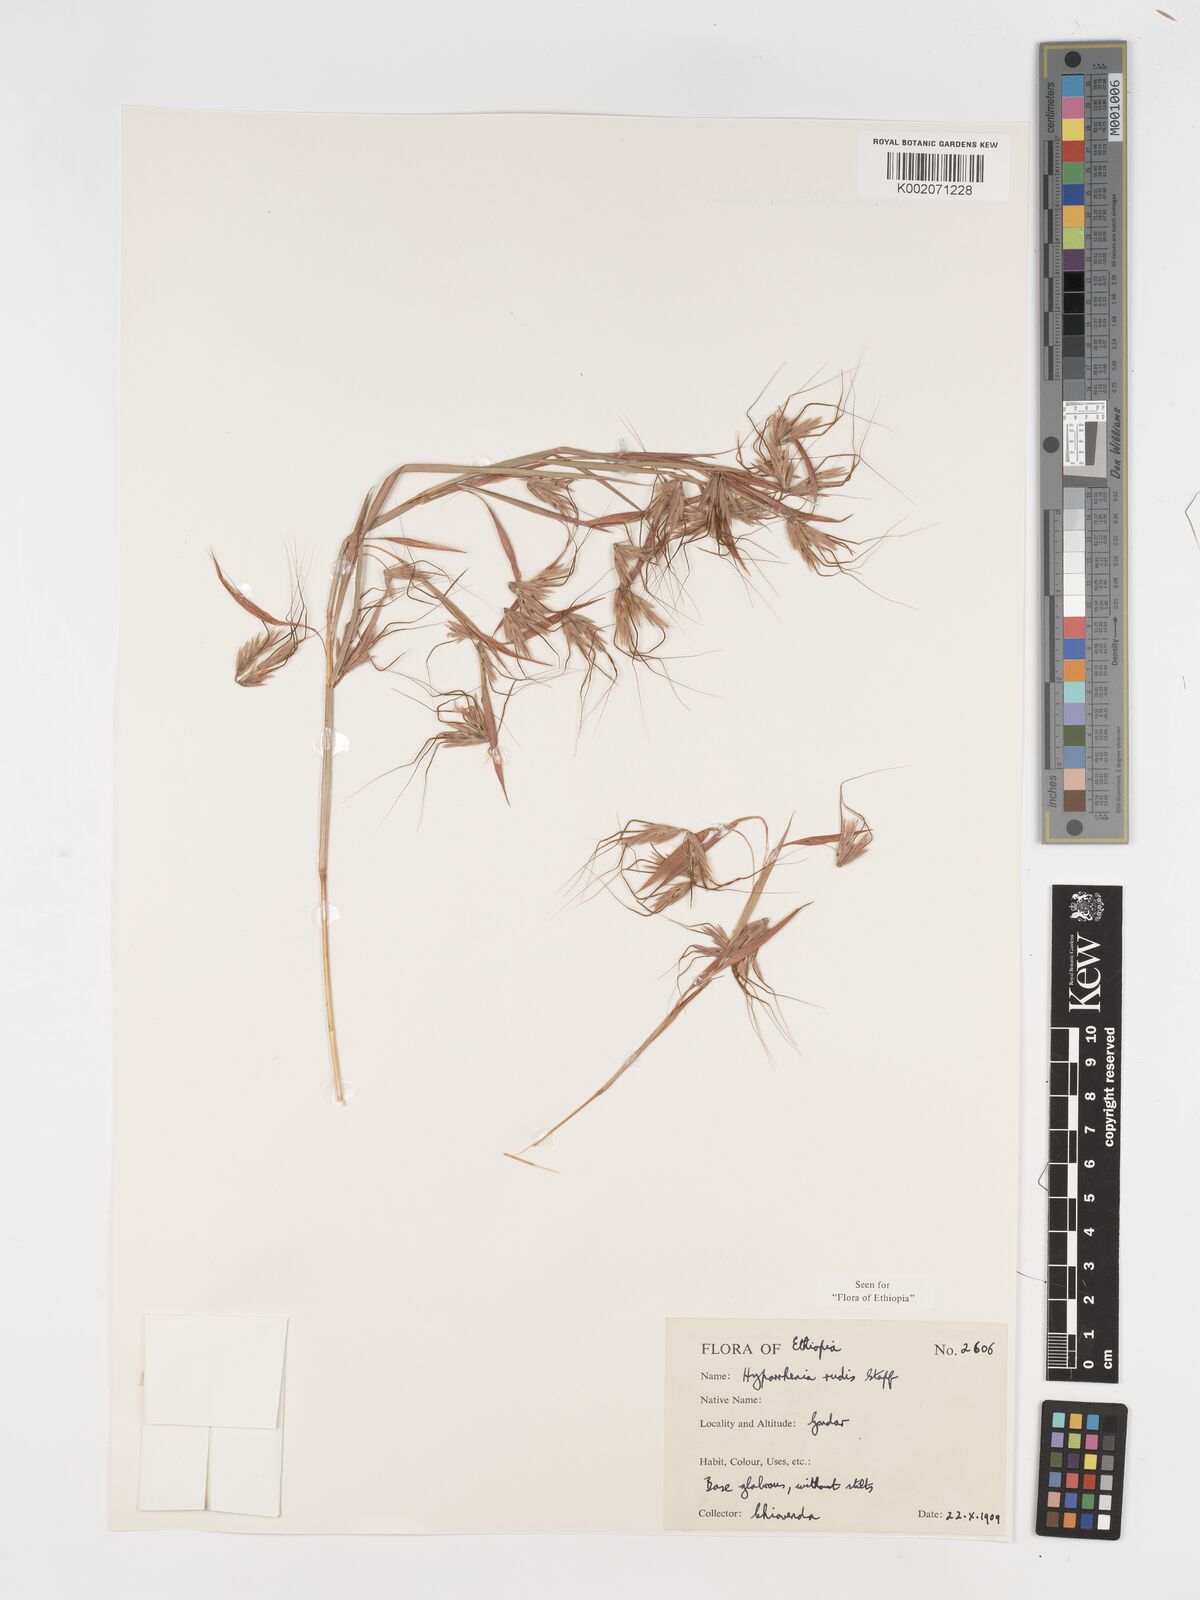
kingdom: Plantae
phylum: Tracheophyta
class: Liliopsida
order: Poales
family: Poaceae
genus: Hyparrhenia
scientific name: Hyparrhenia rudis
